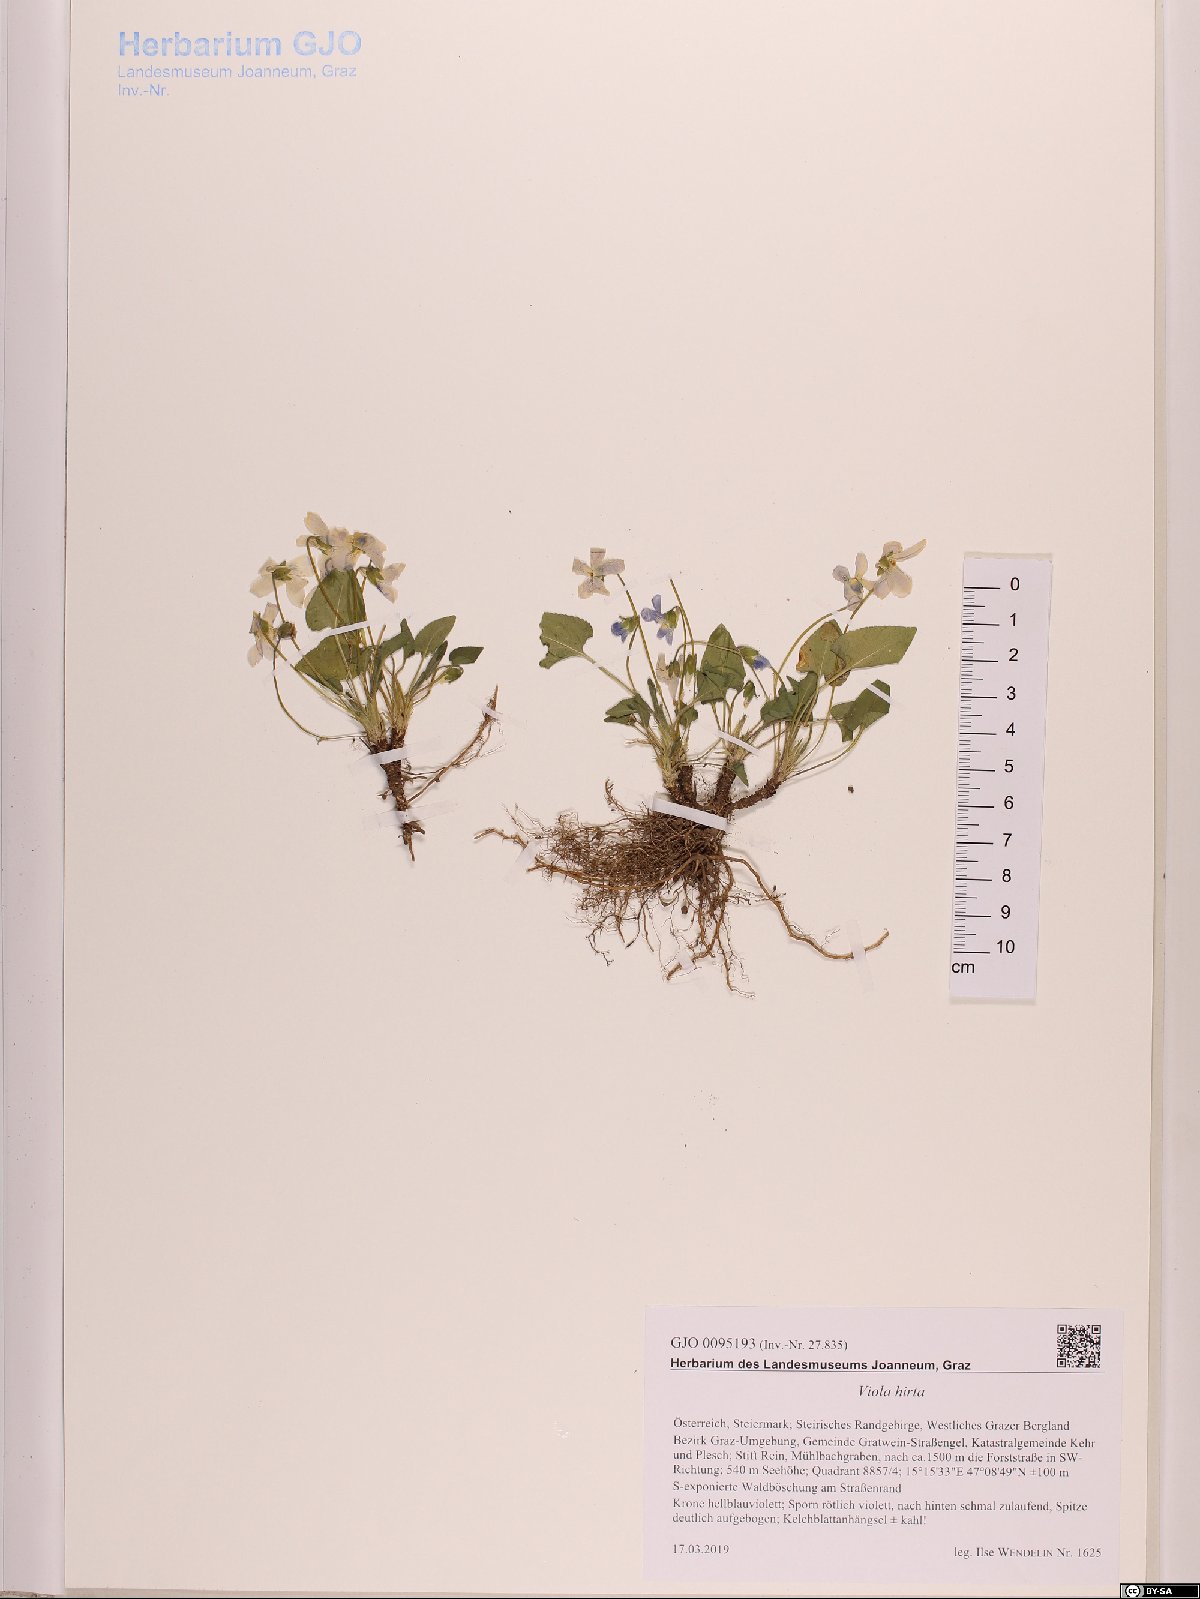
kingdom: Plantae
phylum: Tracheophyta
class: Magnoliopsida
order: Malpighiales
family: Violaceae
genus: Viola
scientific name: Viola hirta
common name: Hairy violet
